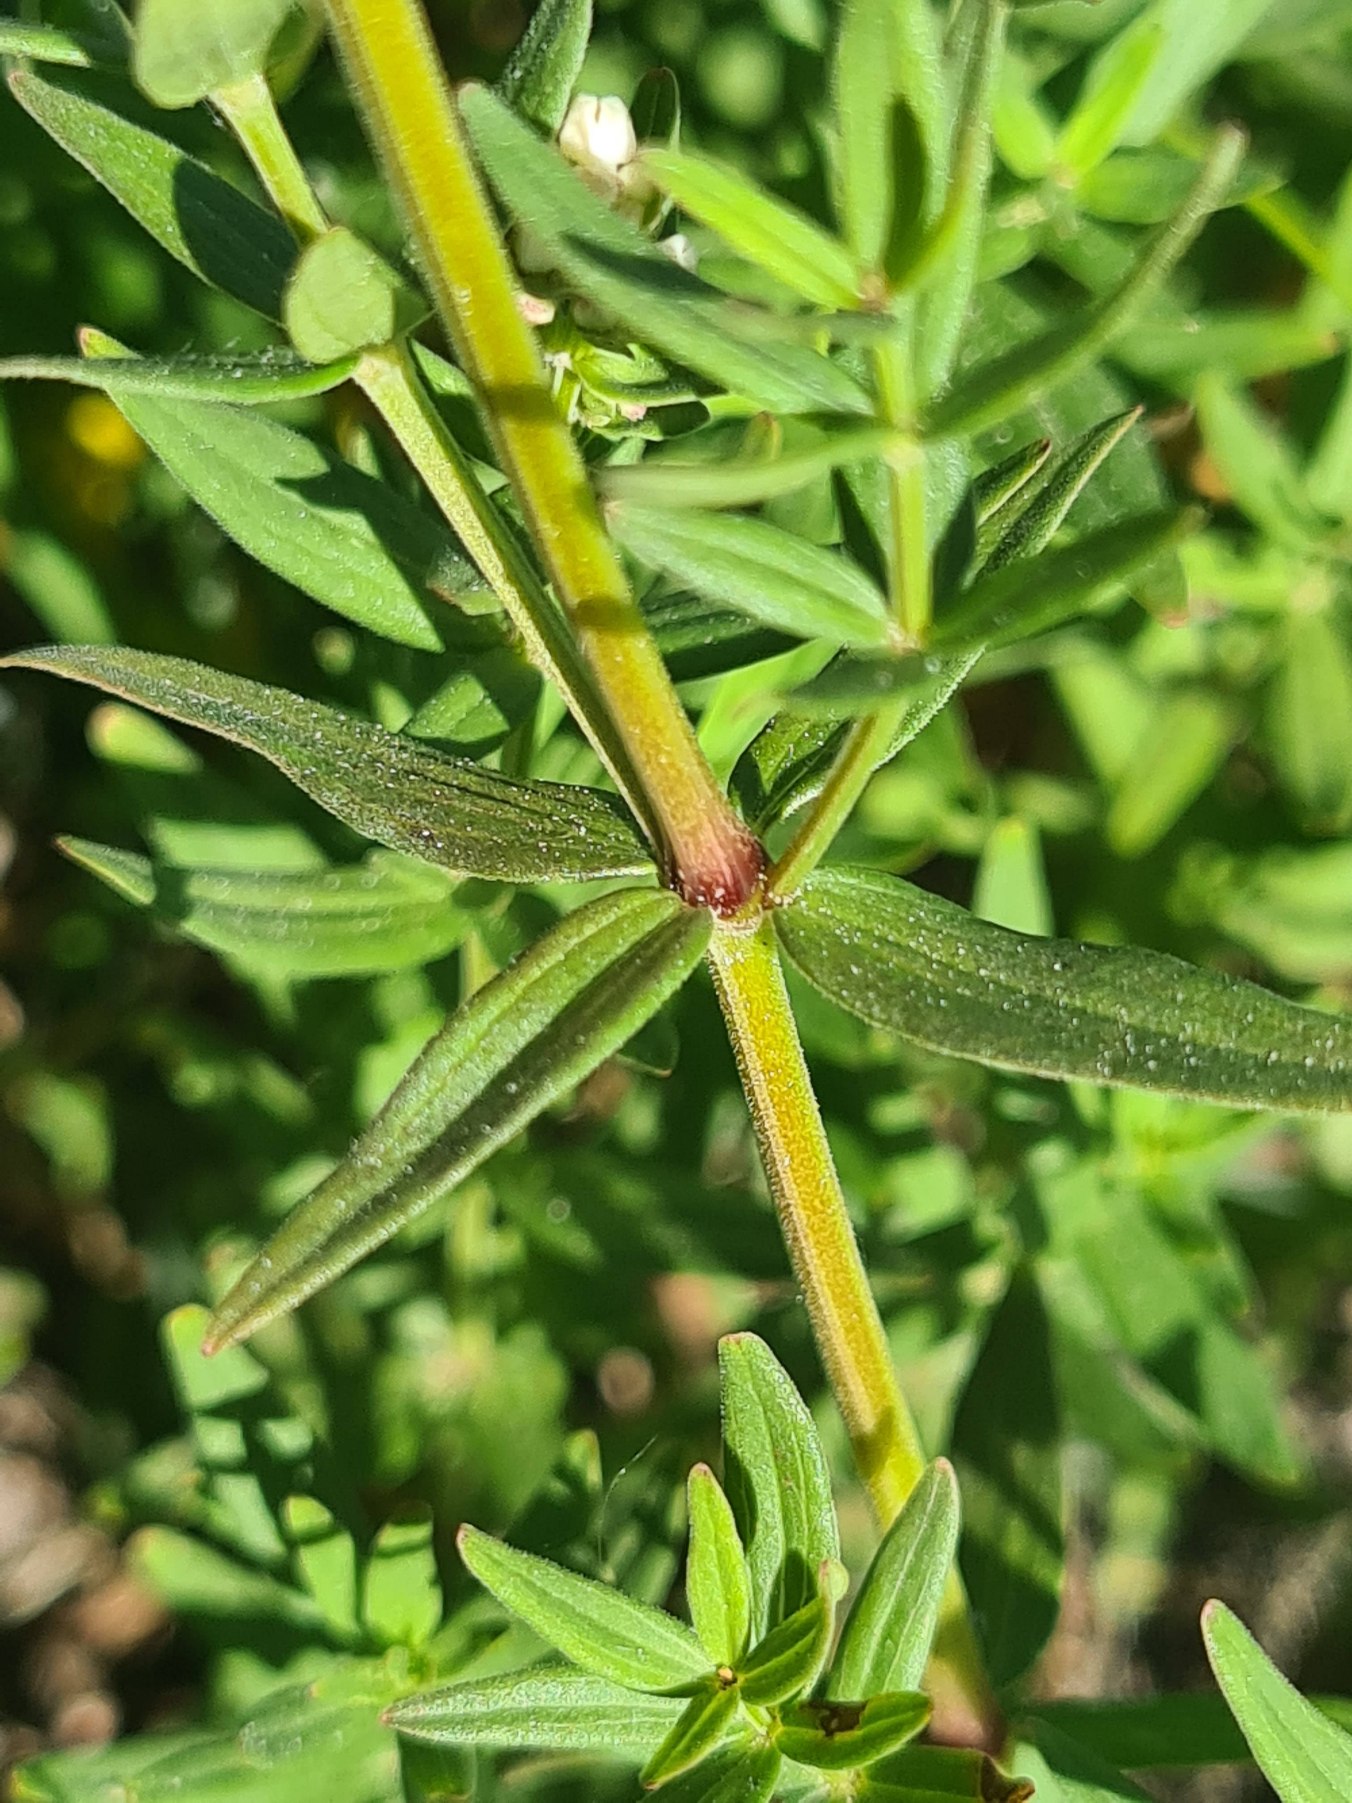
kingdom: Plantae
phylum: Tracheophyta
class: Magnoliopsida
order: Gentianales
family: Rubiaceae
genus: Galium
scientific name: Galium boreale
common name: Trenervet snerre
